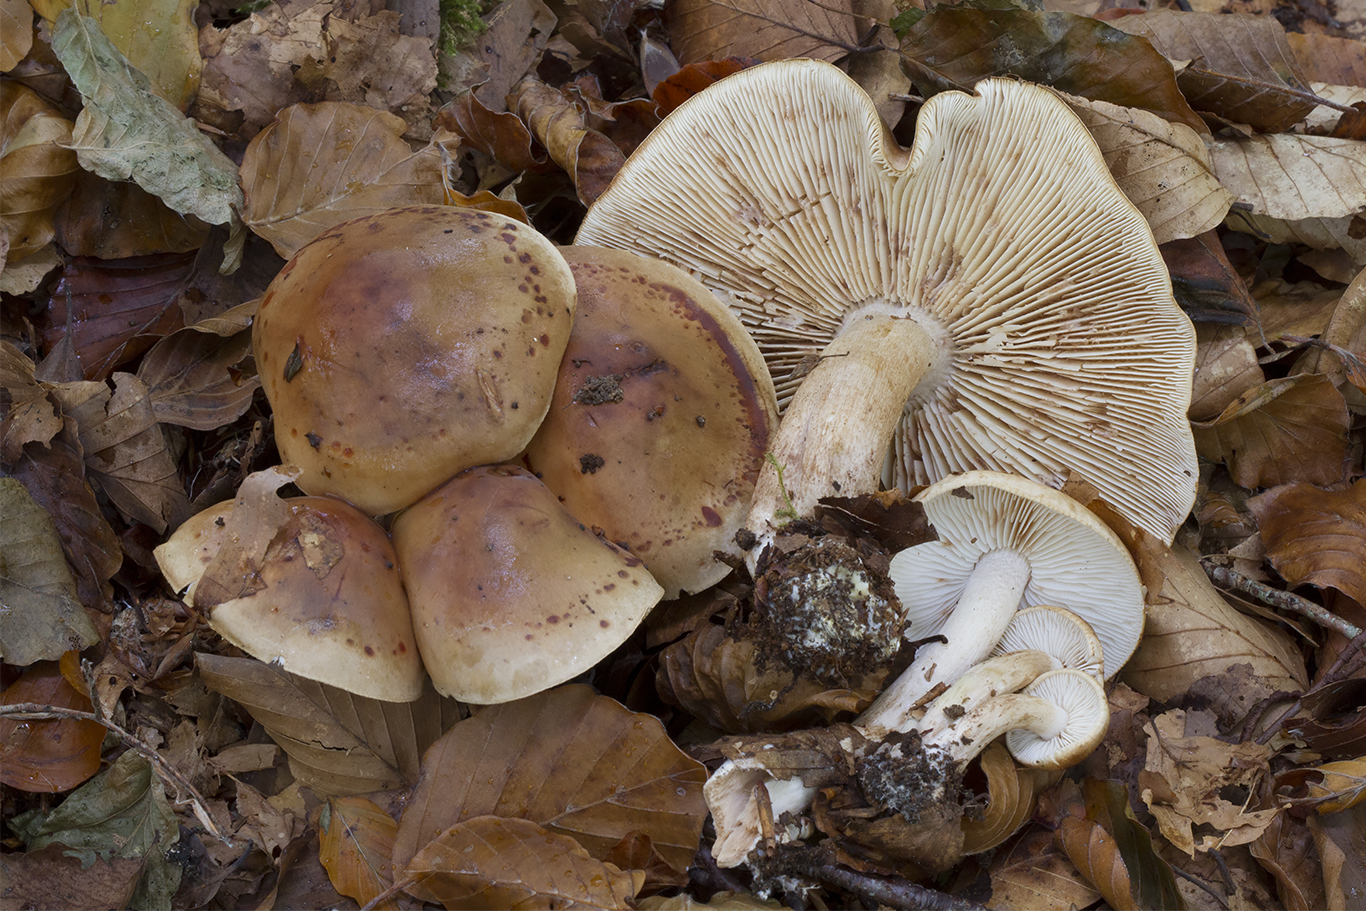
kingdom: Fungi
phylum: Basidiomycota
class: Agaricomycetes
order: Agaricales
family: Tricholomataceae
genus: Tricholoma
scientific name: Tricholoma ustale
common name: sveden ridderhat
